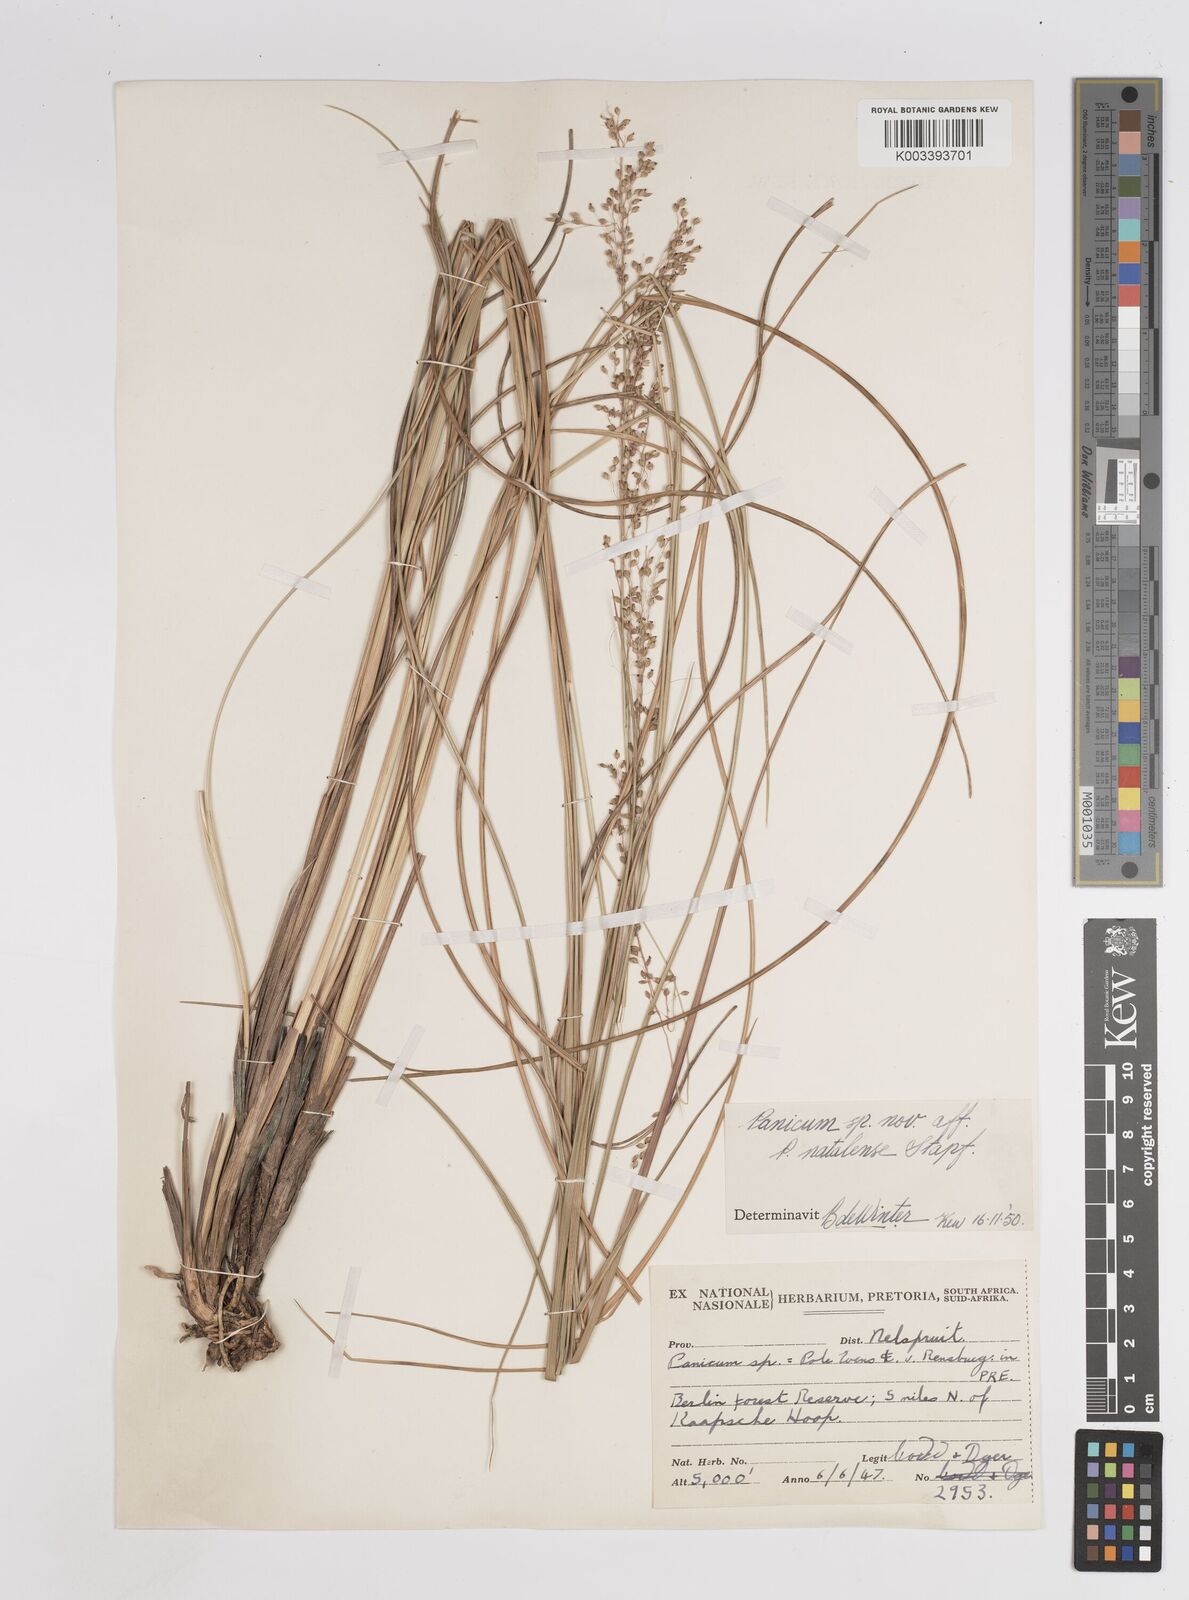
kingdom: Plantae
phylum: Tracheophyta
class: Liliopsida
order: Poales
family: Poaceae
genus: Trichanthecium
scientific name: Trichanthecium natalense
